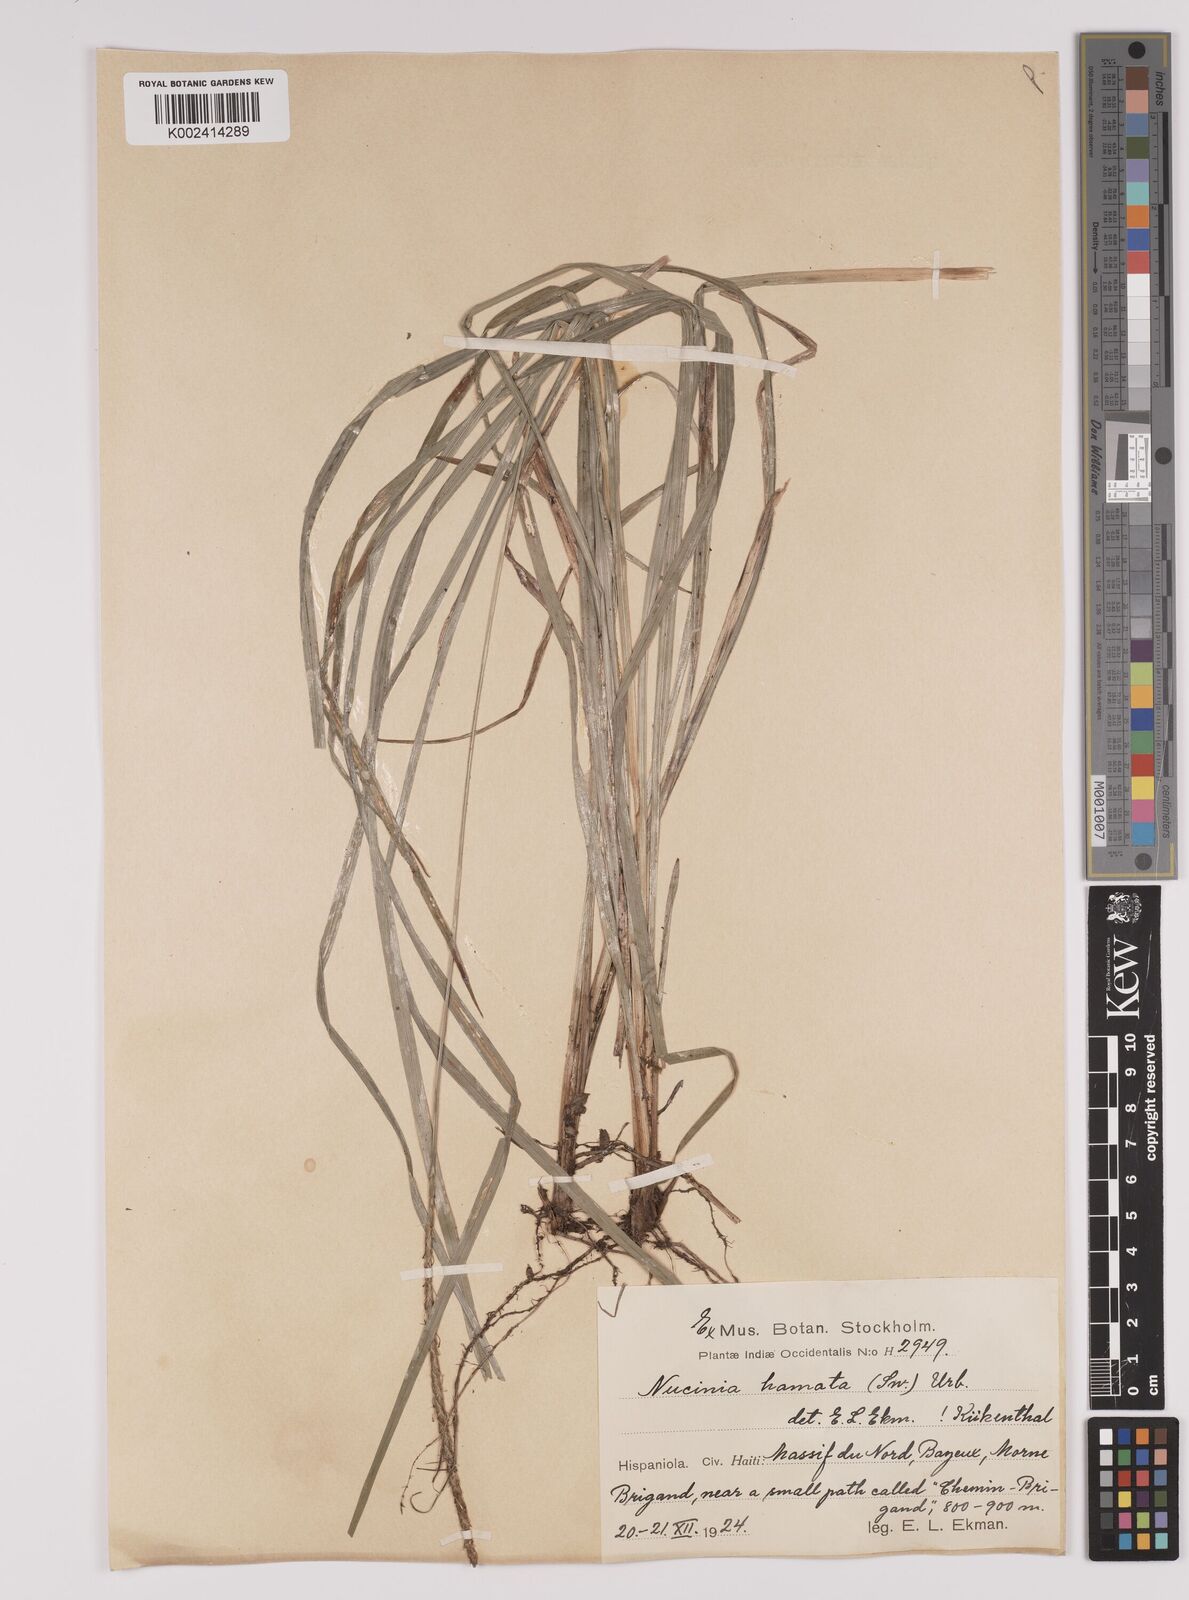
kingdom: Plantae
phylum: Tracheophyta
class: Liliopsida
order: Poales
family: Cyperaceae
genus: Carex
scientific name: Carex hamata
